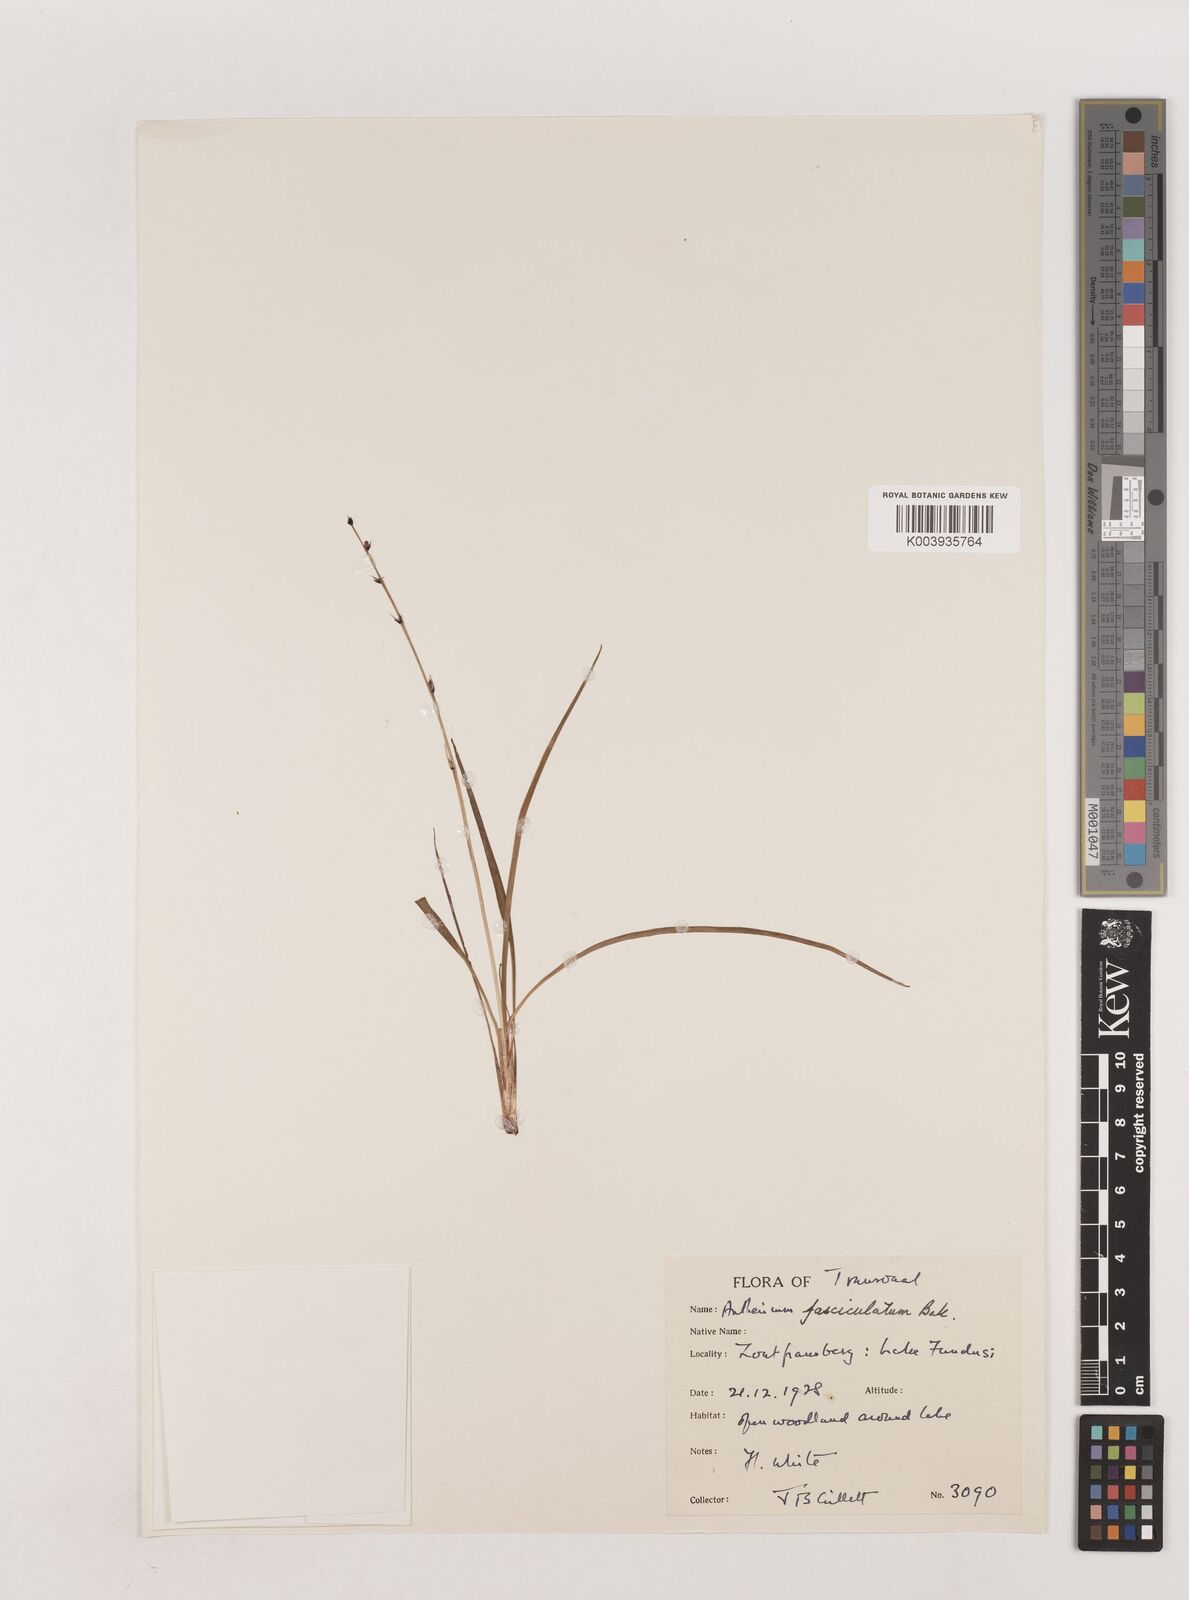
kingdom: Plantae
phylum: Tracheophyta
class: Liliopsida
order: Asparagales
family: Asparagaceae
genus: Chlorophytum
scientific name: Chlorophytum fasciculatum
